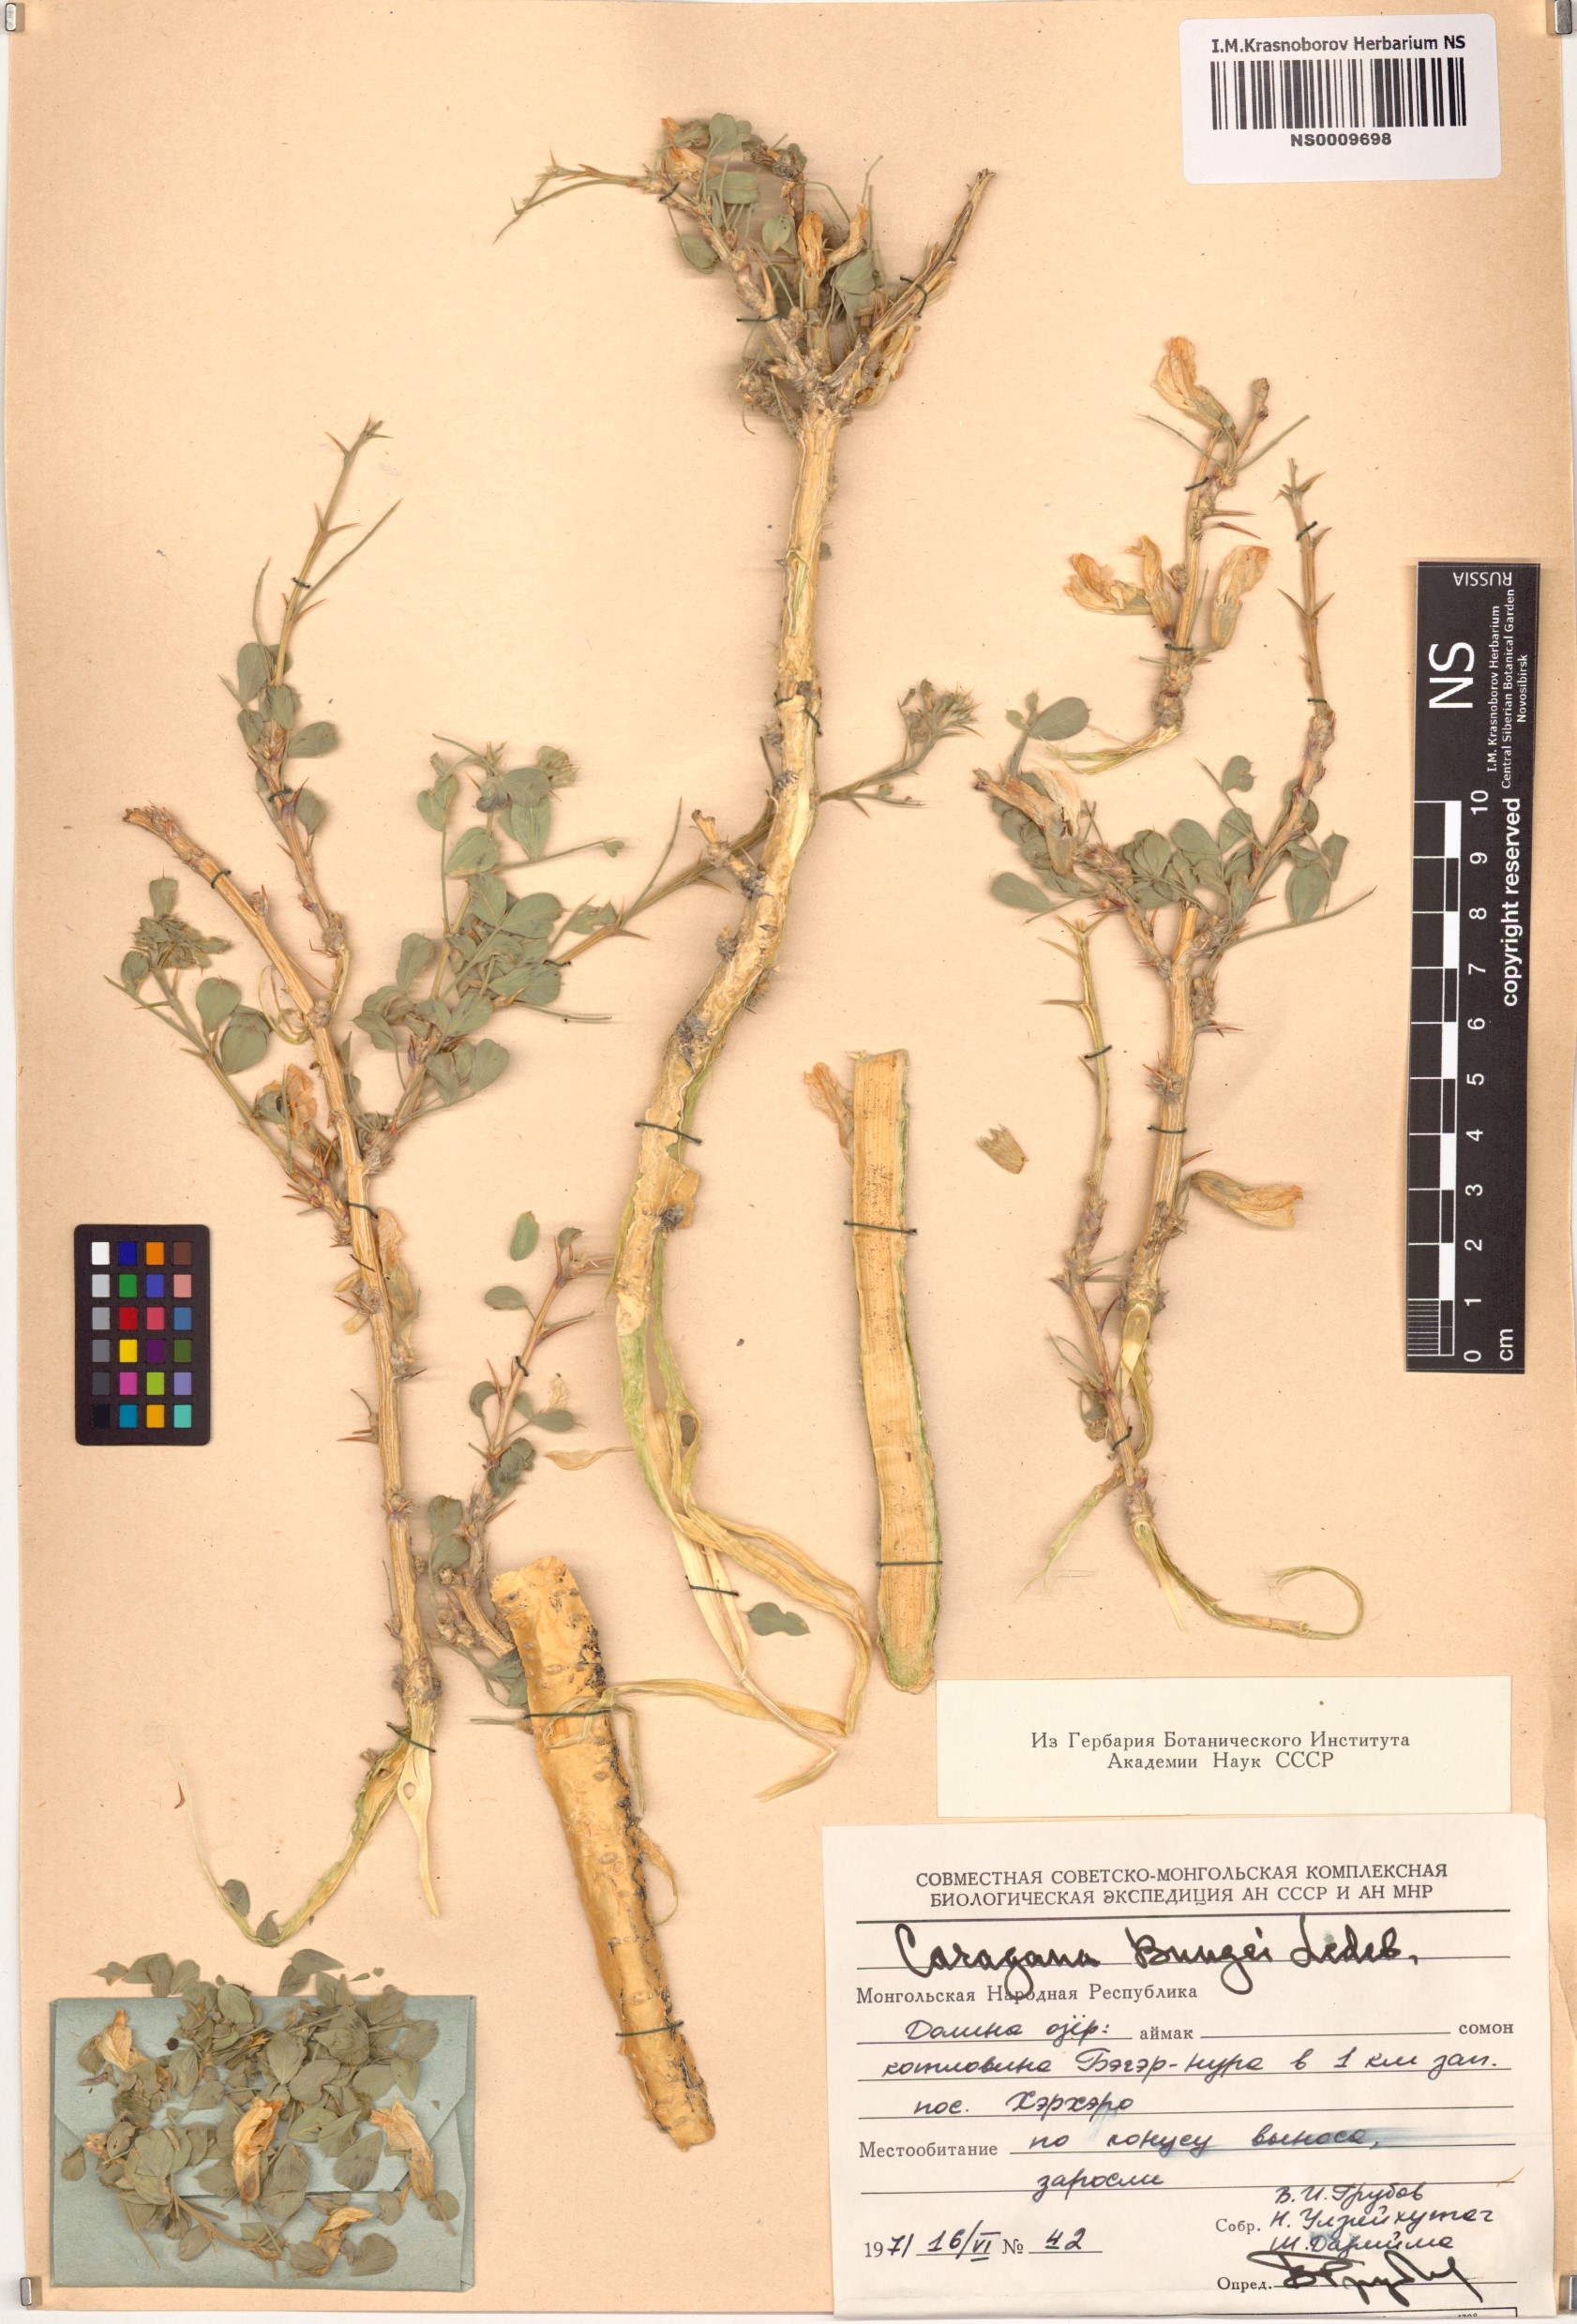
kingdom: Plantae
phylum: Tracheophyta
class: Magnoliopsida
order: Fabales
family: Fabaceae
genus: Caragana
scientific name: Caragana bungei
